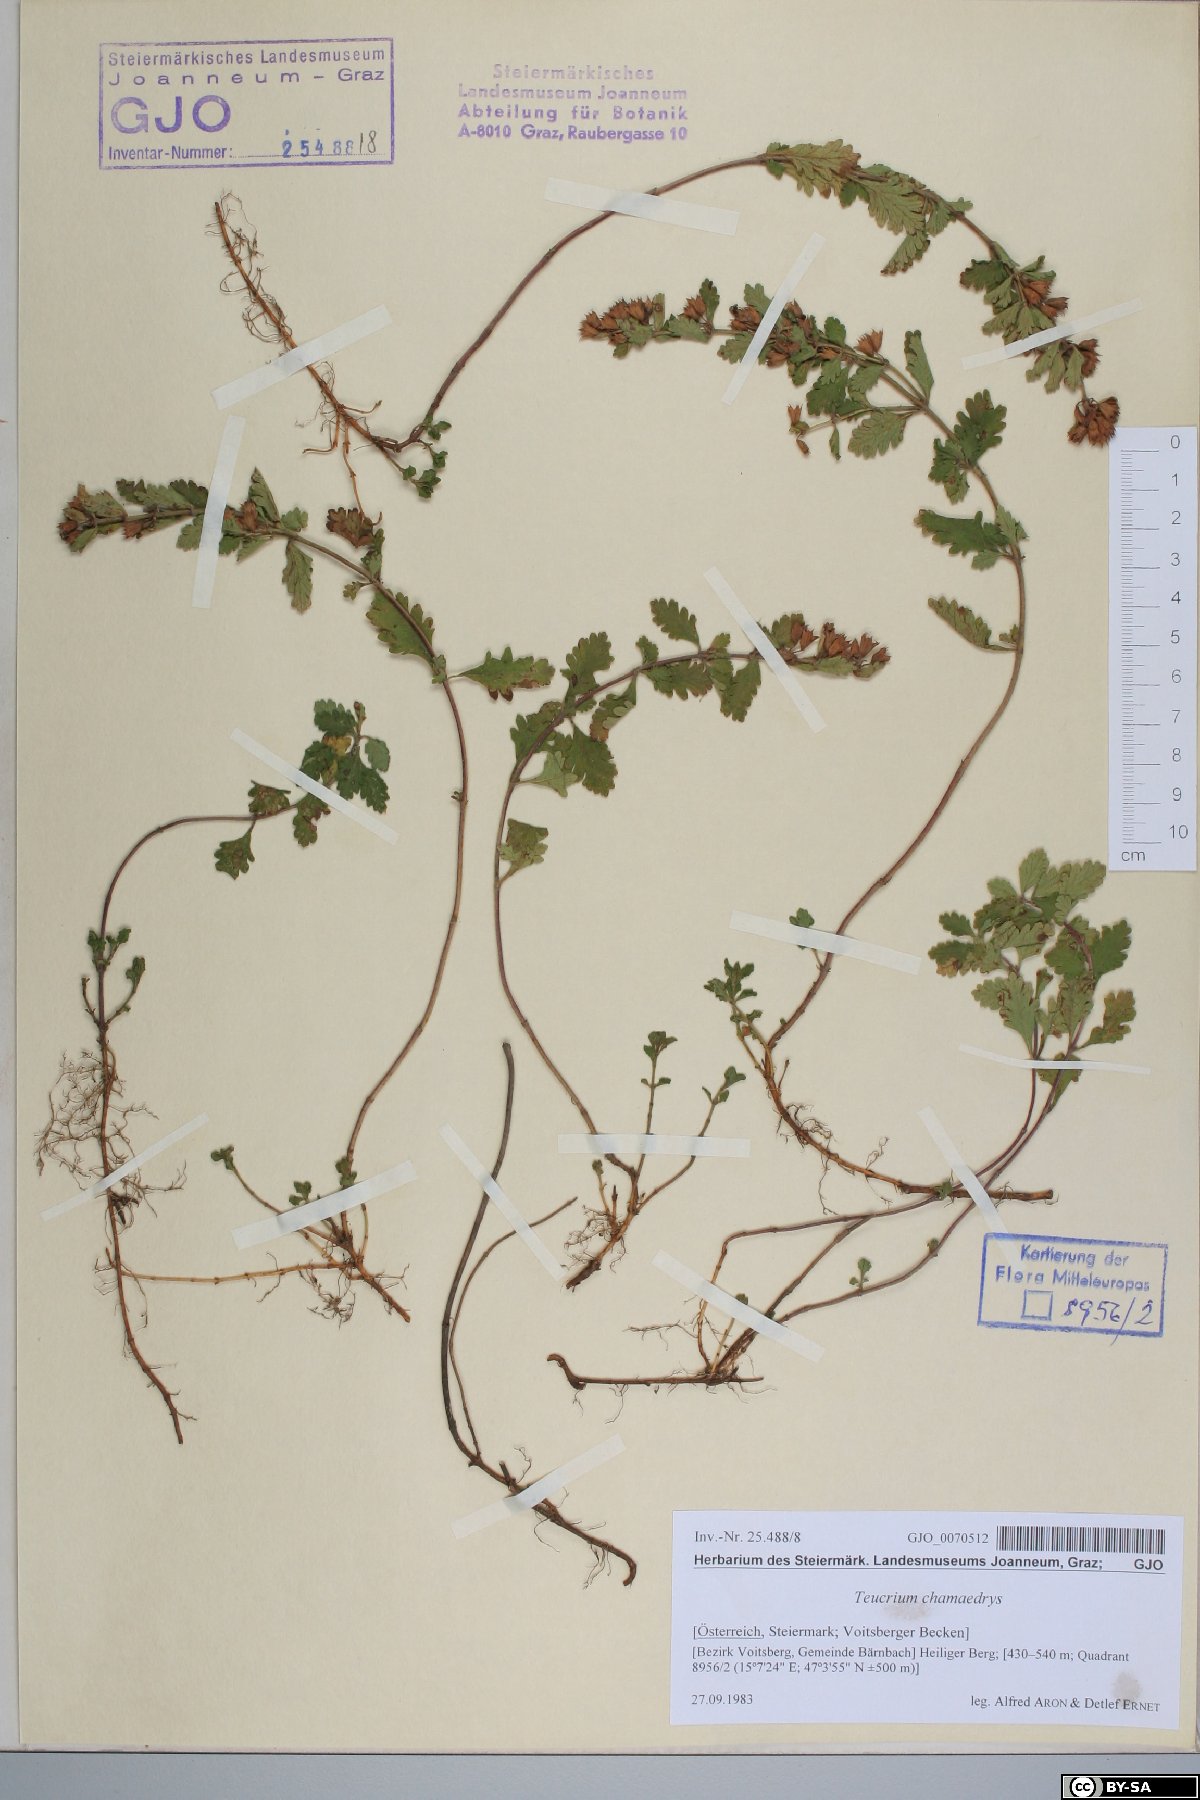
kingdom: Plantae
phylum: Tracheophyta
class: Magnoliopsida
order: Lamiales
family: Lamiaceae
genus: Teucrium
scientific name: Teucrium chamaedrys
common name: Wall germander
